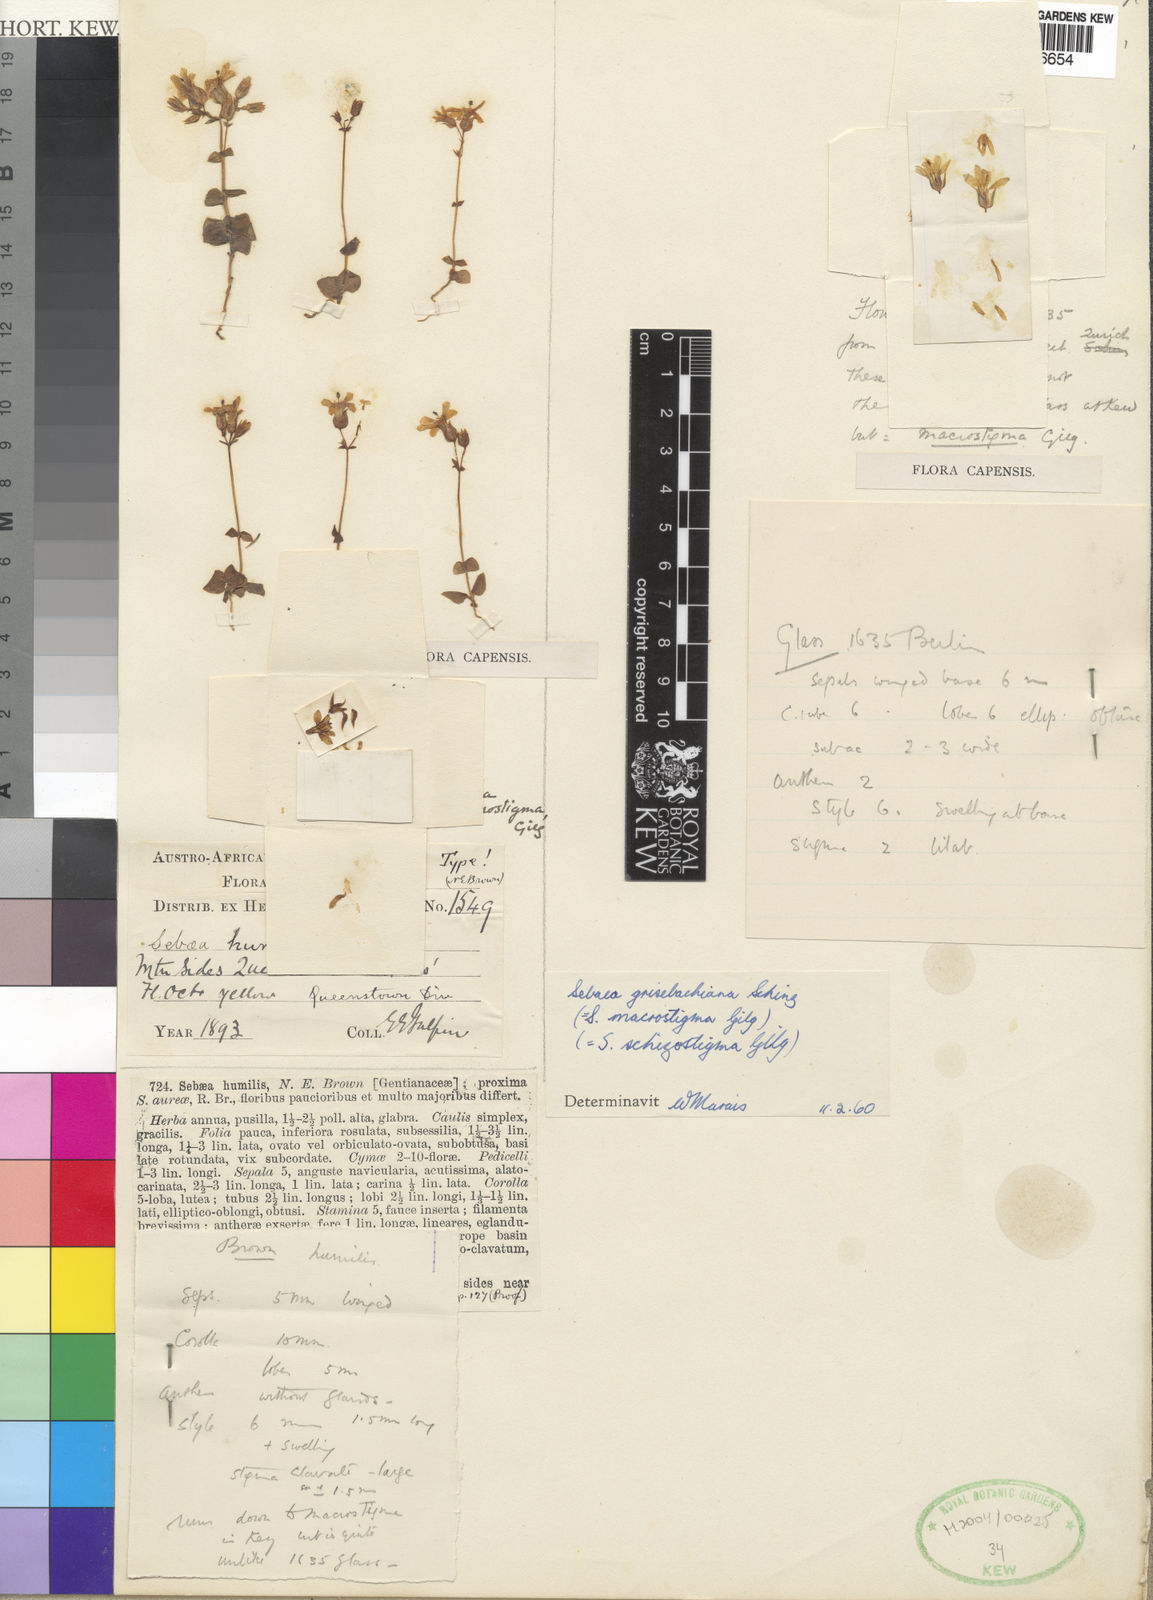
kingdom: Plantae
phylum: Tracheophyta
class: Magnoliopsida
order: Gentianales
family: Gentianaceae
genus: Sebaea
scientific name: Sebaea grisebachiana
